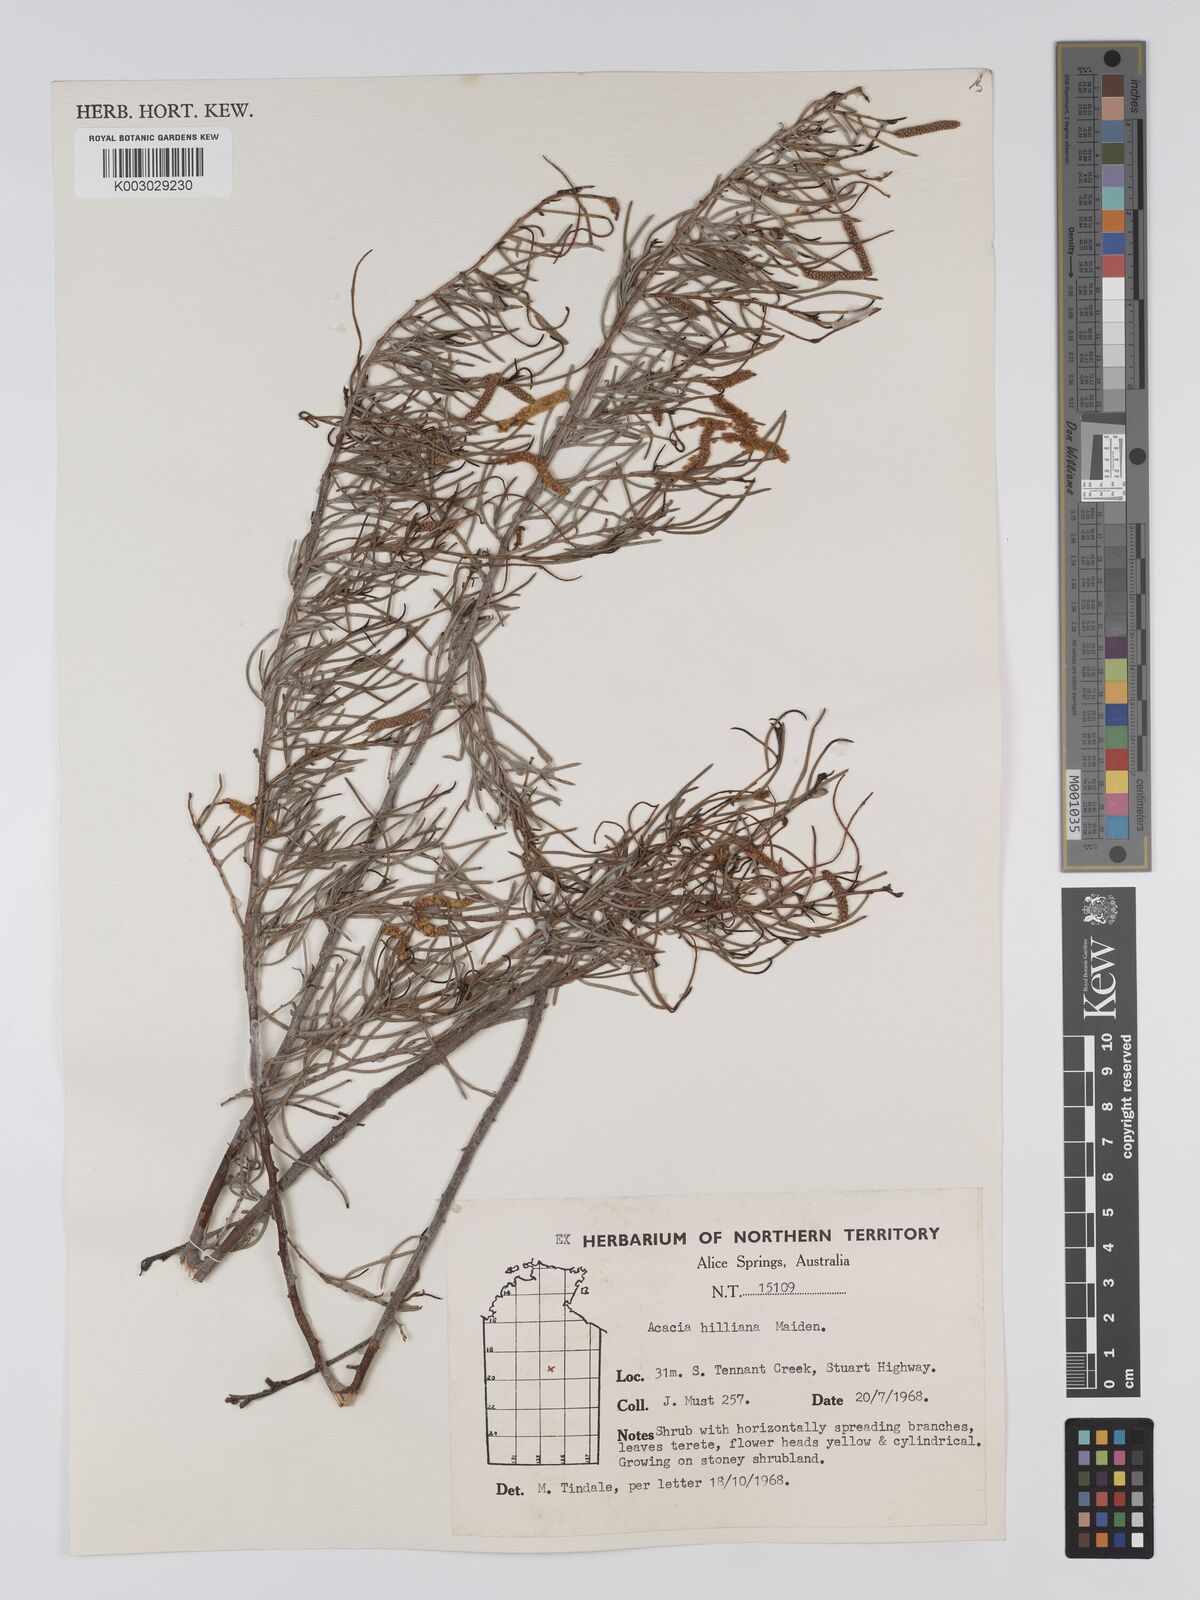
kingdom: Plantae
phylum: Tracheophyta
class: Magnoliopsida
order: Fabales
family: Fabaceae
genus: Acacia
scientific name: Acacia hilliana
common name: Hill's tabletop wattle
